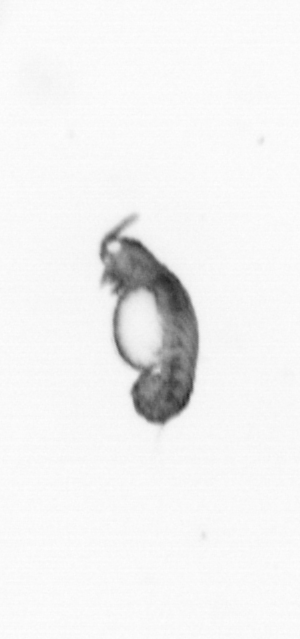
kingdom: Animalia
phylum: Annelida
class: Polychaeta
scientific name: Polychaeta
